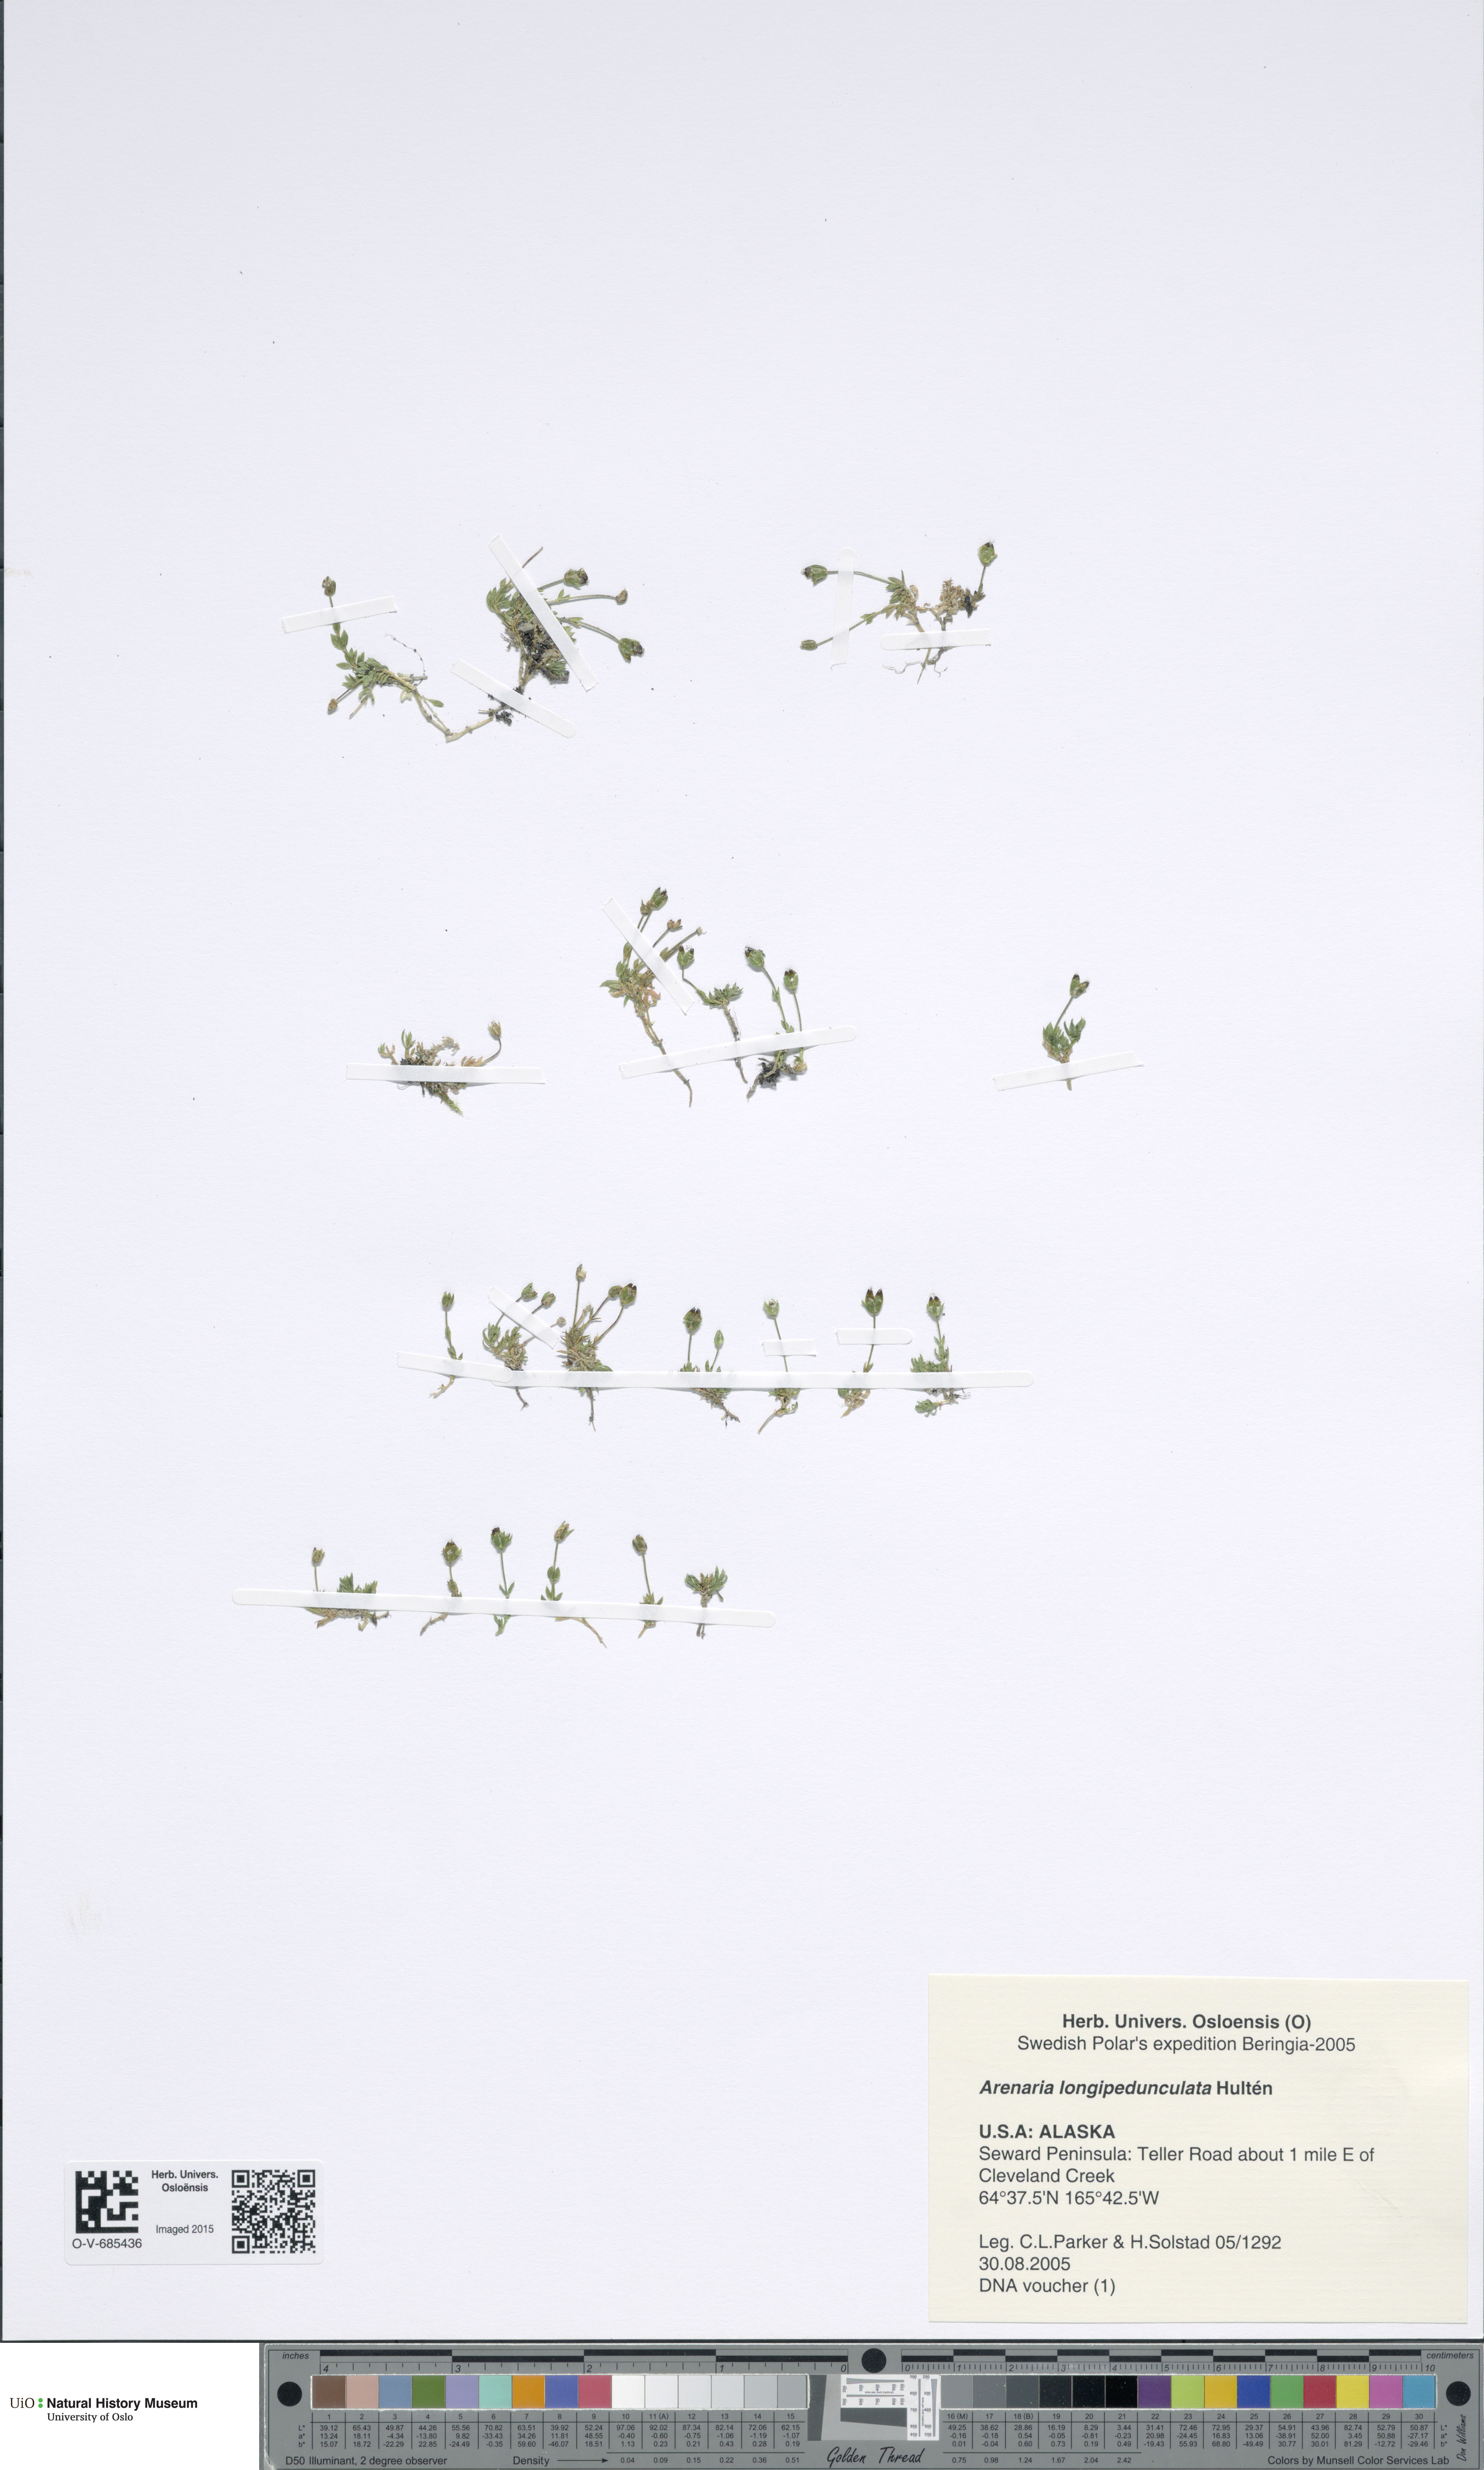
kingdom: Plantae
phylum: Tracheophyta
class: Magnoliopsida
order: Caryophyllales
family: Caryophyllaceae
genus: Arenaria
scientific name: Arenaria longipedunculata
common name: Long-stemmed sandwort
